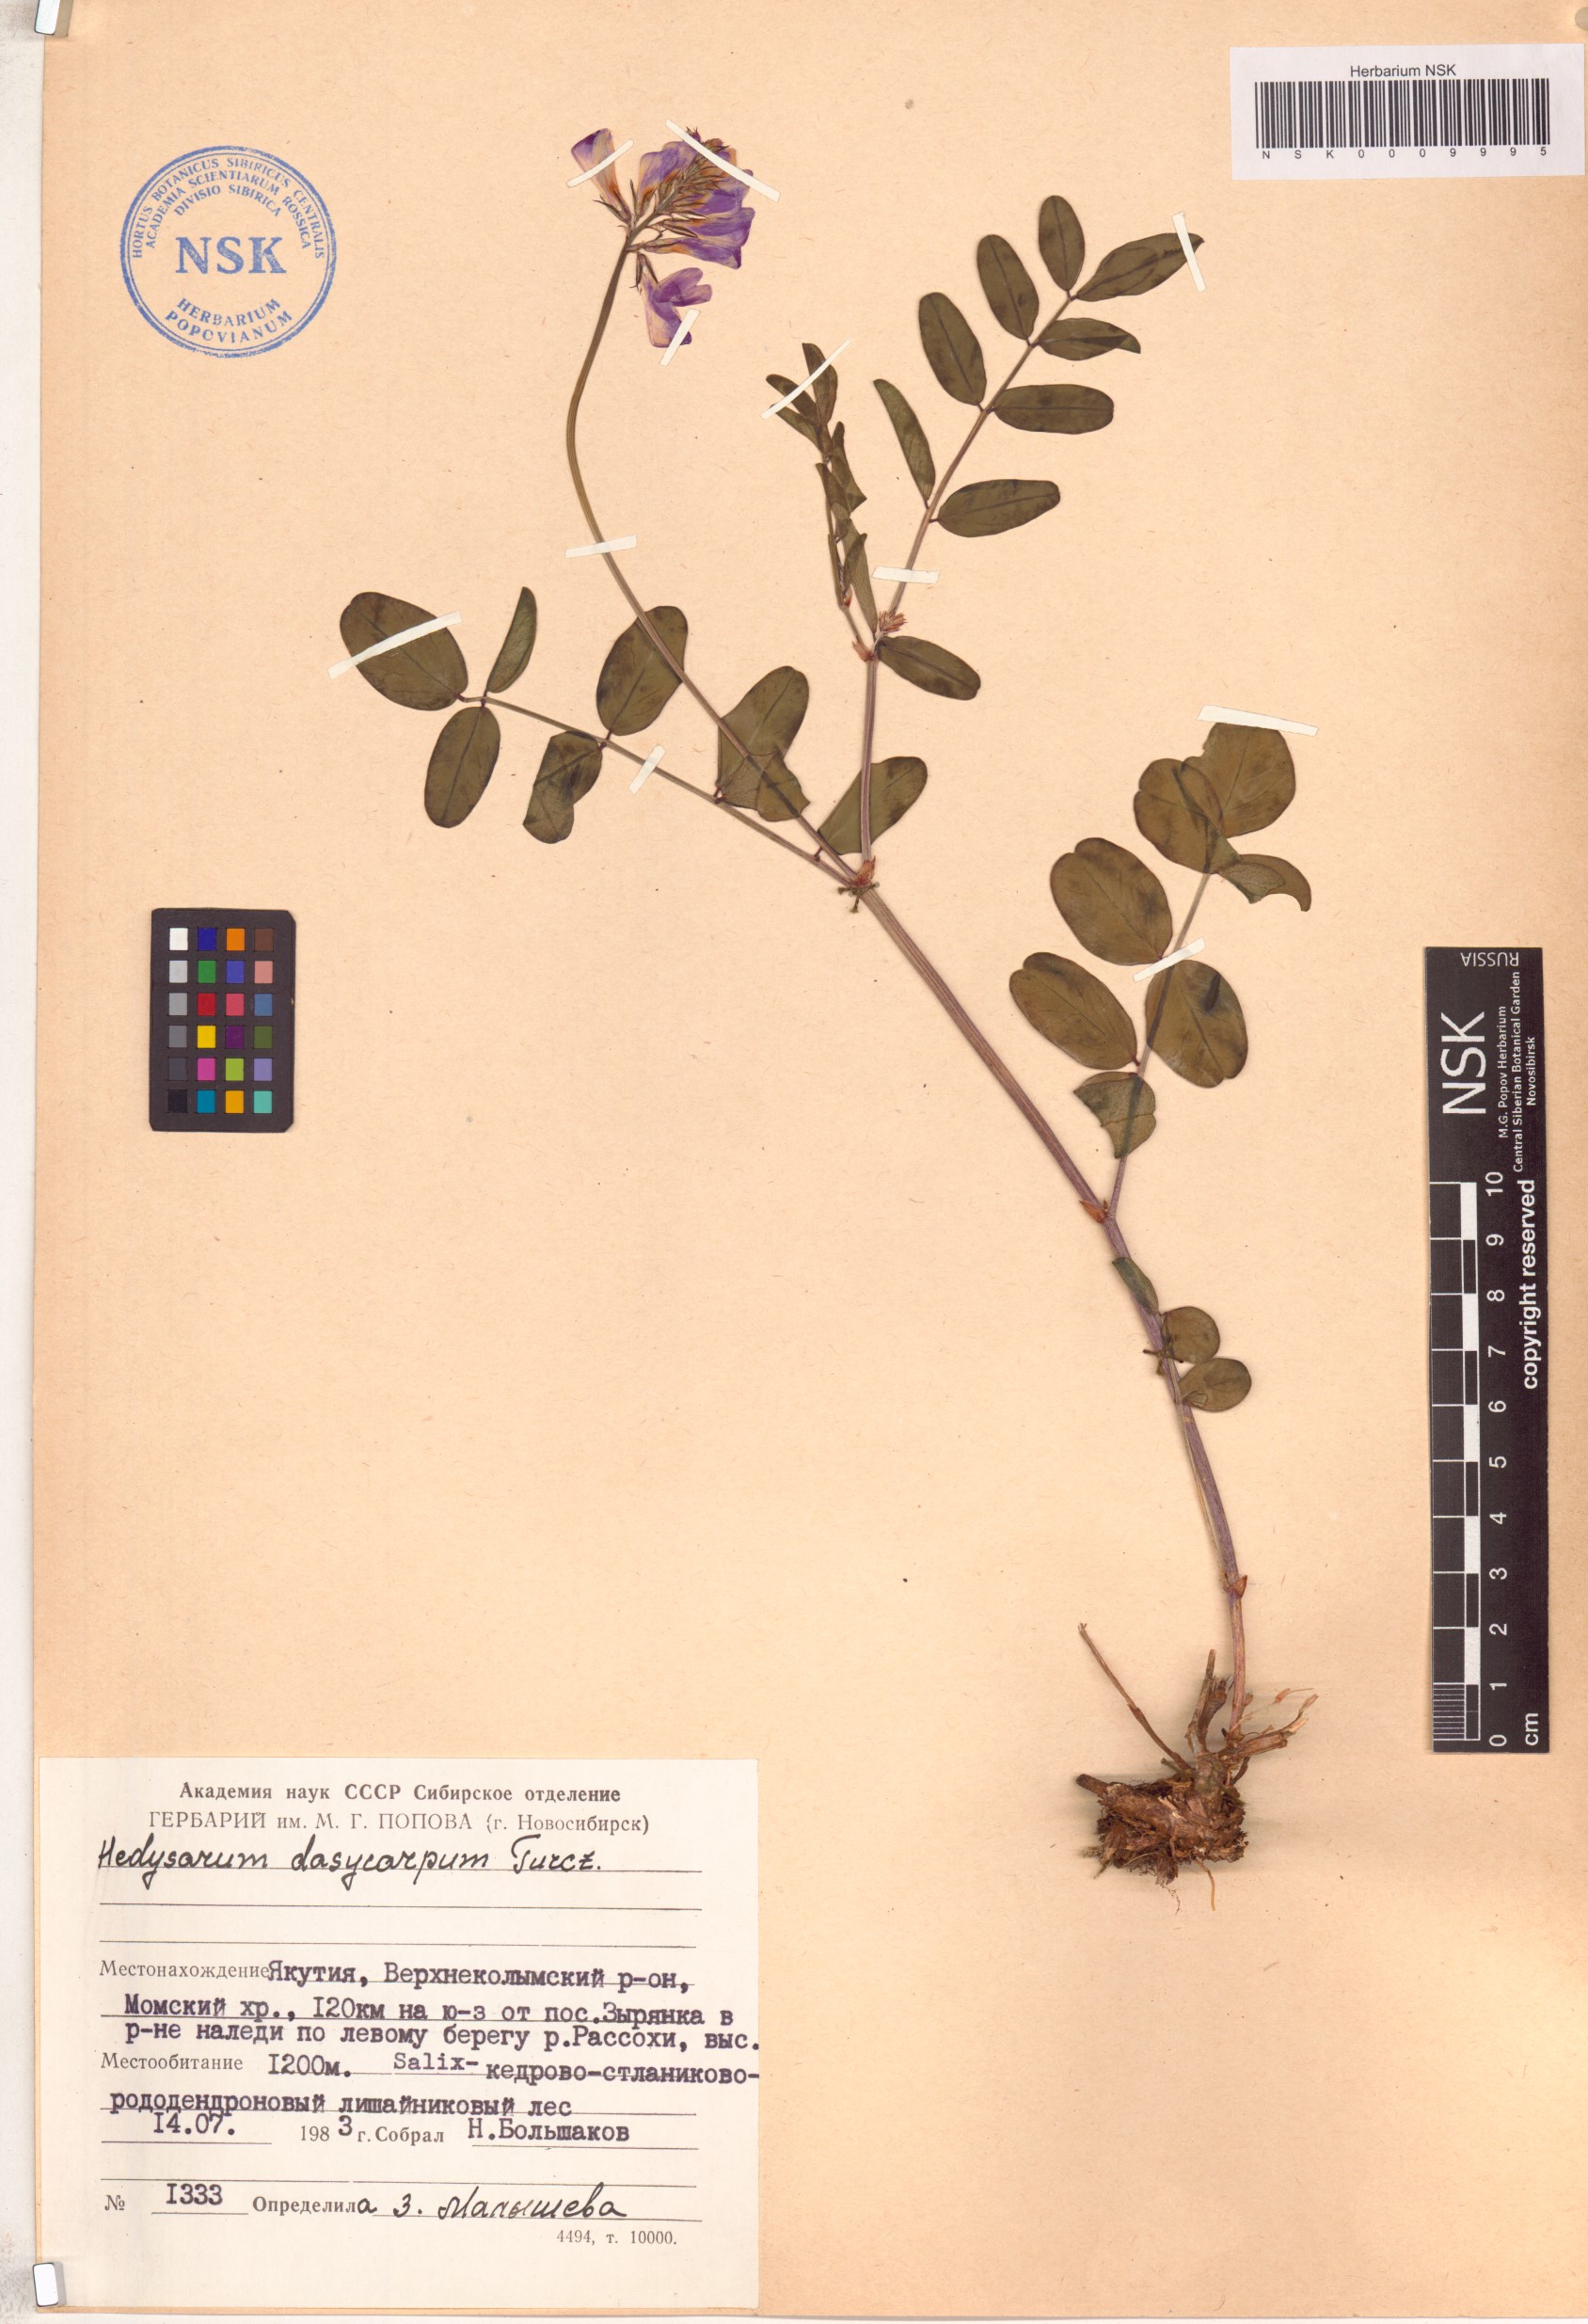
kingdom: Plantae
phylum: Tracheophyta
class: Magnoliopsida
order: Fabales
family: Fabaceae
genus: Hedysarum
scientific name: Hedysarum dasycarpum
